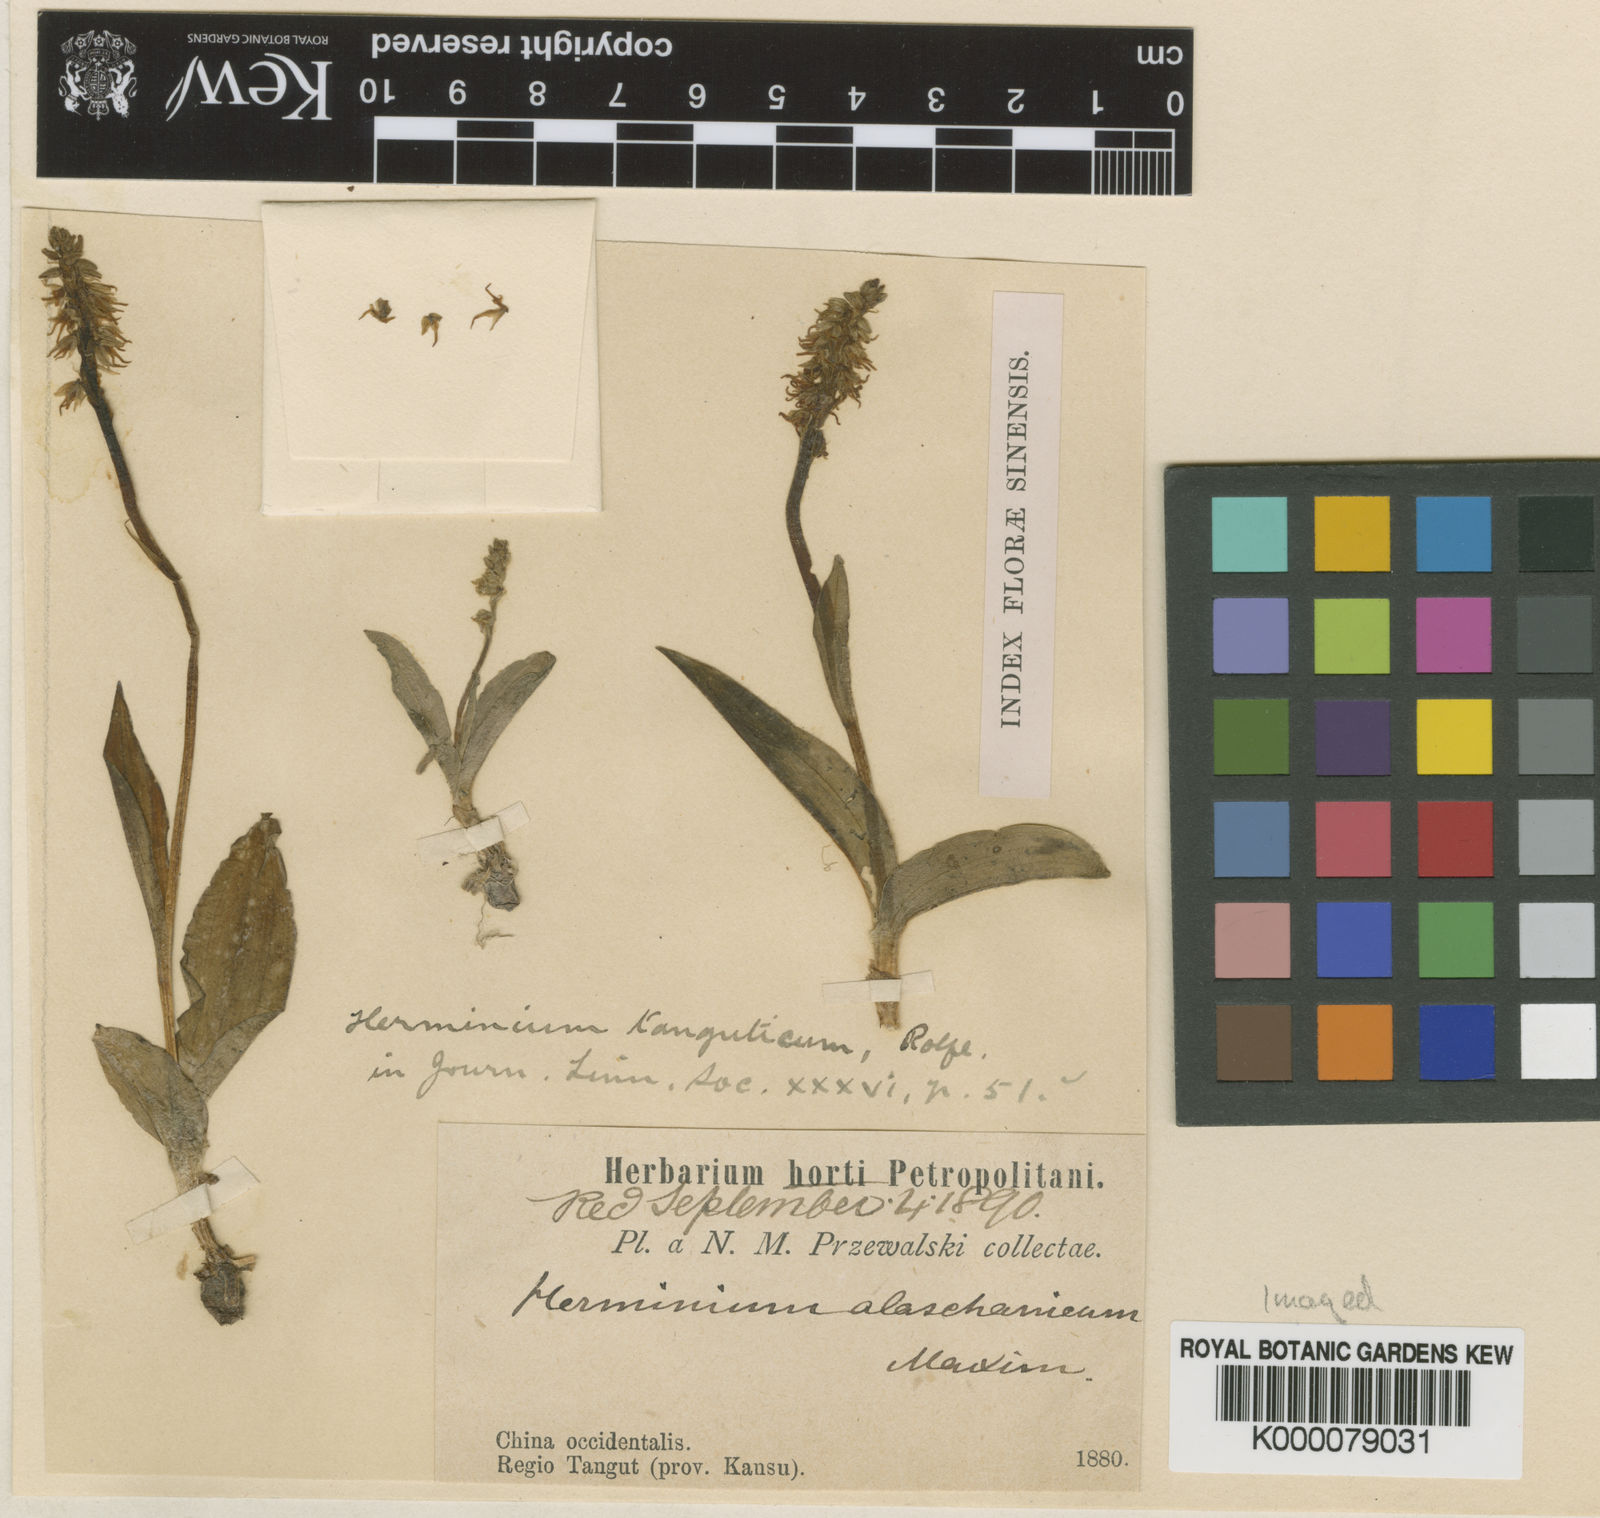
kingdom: Plantae
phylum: Tracheophyta
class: Liliopsida
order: Asparagales
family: Orchidaceae
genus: Herminium
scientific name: Herminium monorchis
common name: Musk orchid
